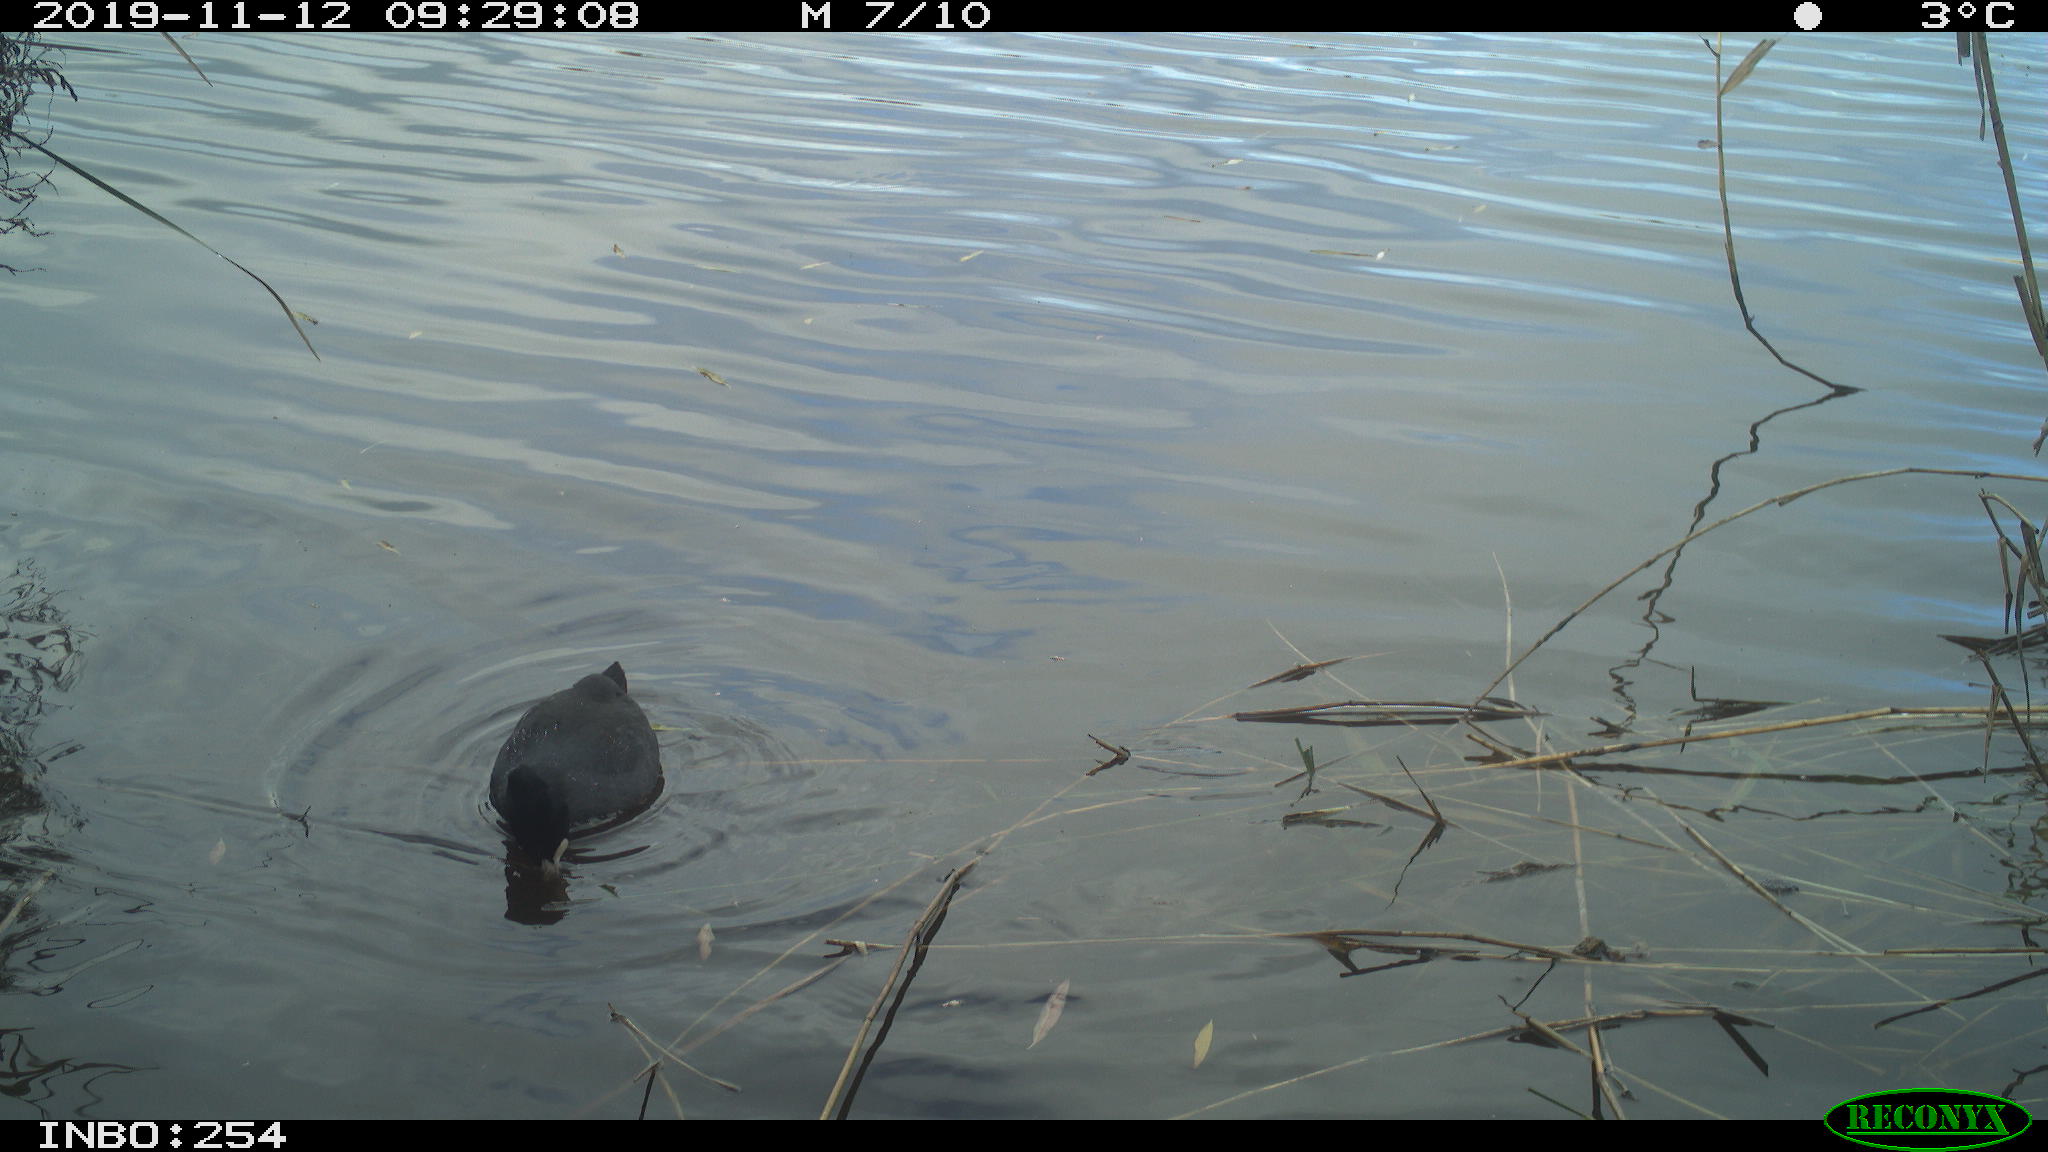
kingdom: Animalia
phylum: Chordata
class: Aves
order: Gruiformes
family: Rallidae
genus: Fulica
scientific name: Fulica atra
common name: Eurasian coot
